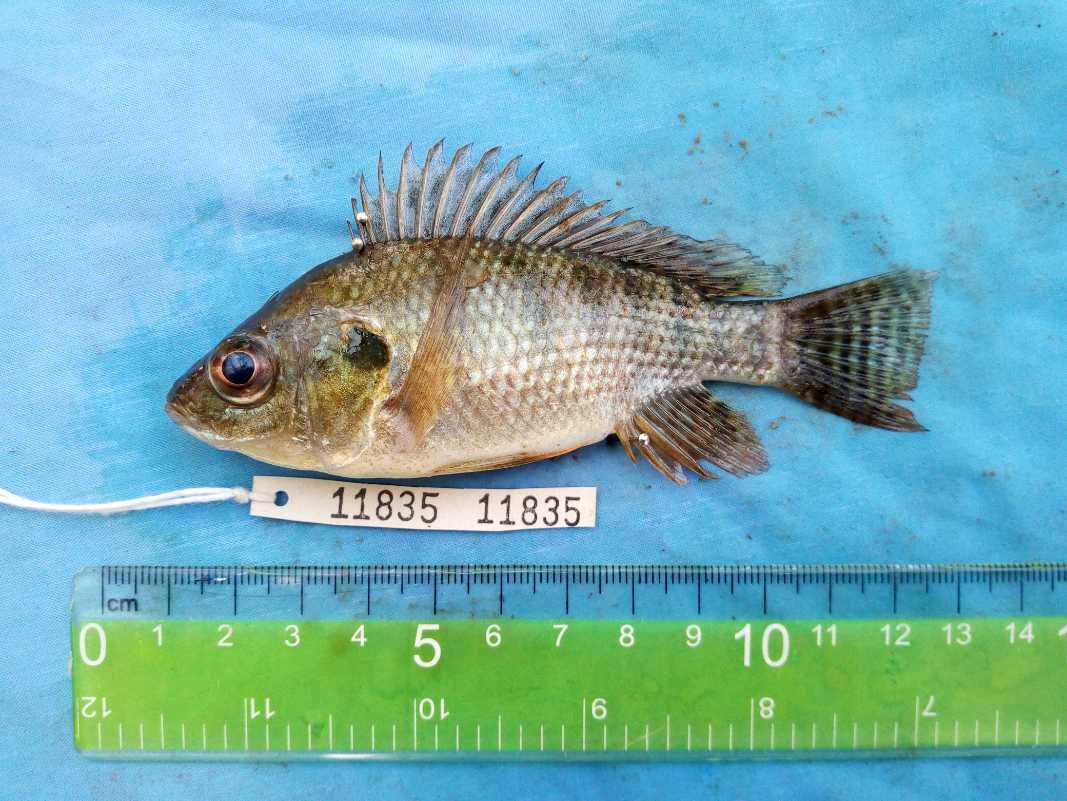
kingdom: Animalia
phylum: Chordata
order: Perciformes
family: Cichlidae
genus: Oreochromis
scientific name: Oreochromis niloticus
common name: Nile tilapia
